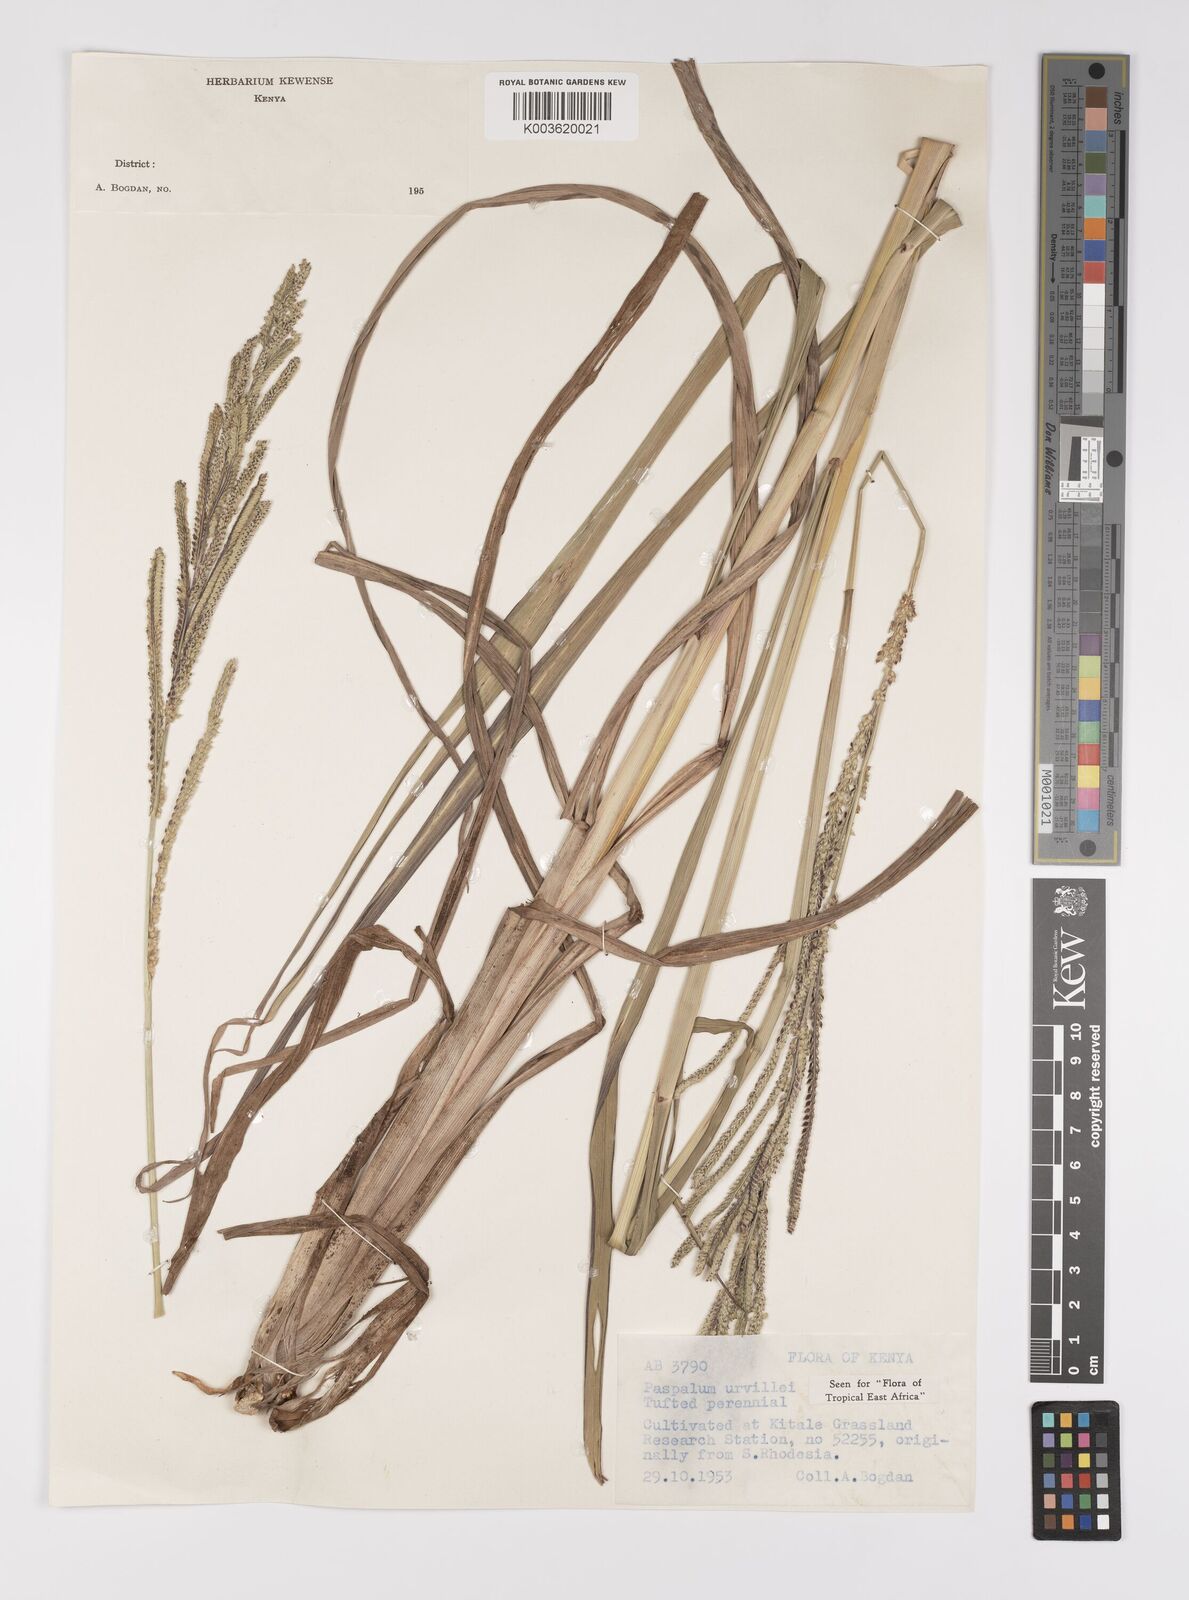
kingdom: Plantae
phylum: Tracheophyta
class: Liliopsida
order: Poales
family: Poaceae
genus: Paspalum
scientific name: Paspalum urvillei
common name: Vasey's grass
